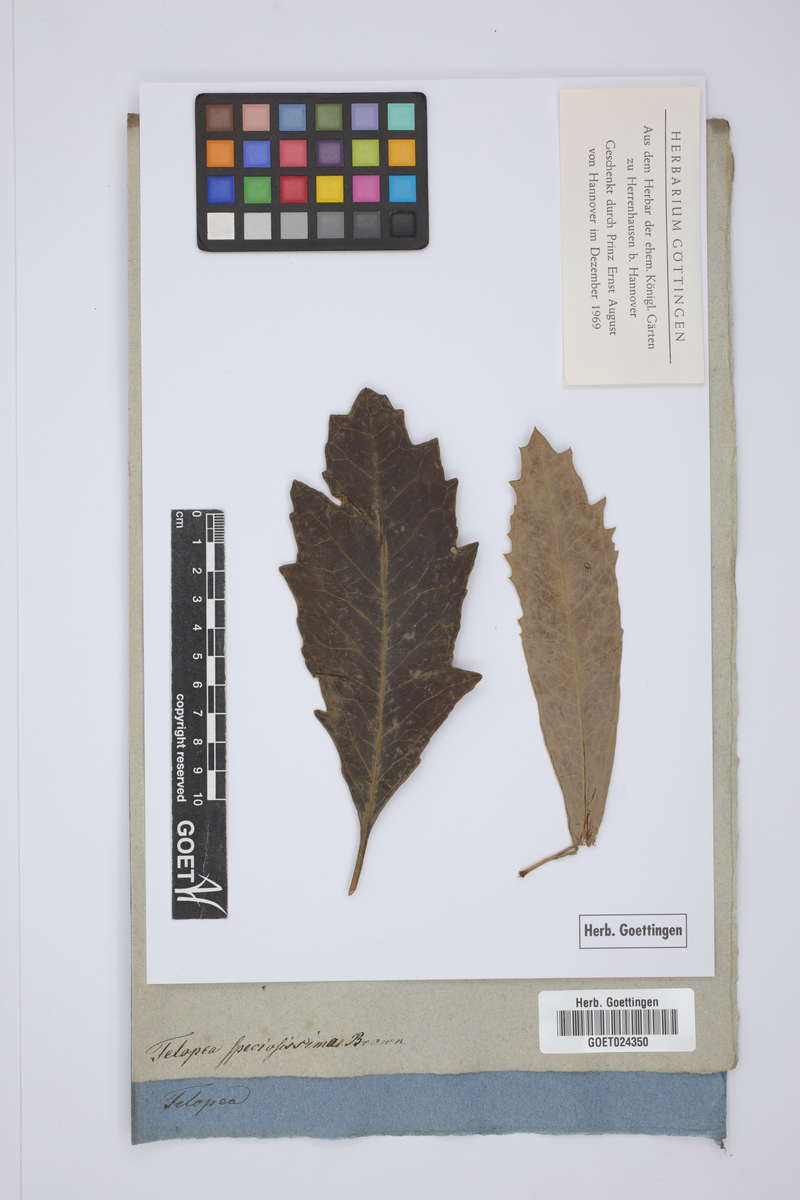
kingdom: Plantae
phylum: Tracheophyta
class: Magnoliopsida
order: Proteales
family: Proteaceae
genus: Telopea
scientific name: Telopea speciosissima
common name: New south wales waratah
